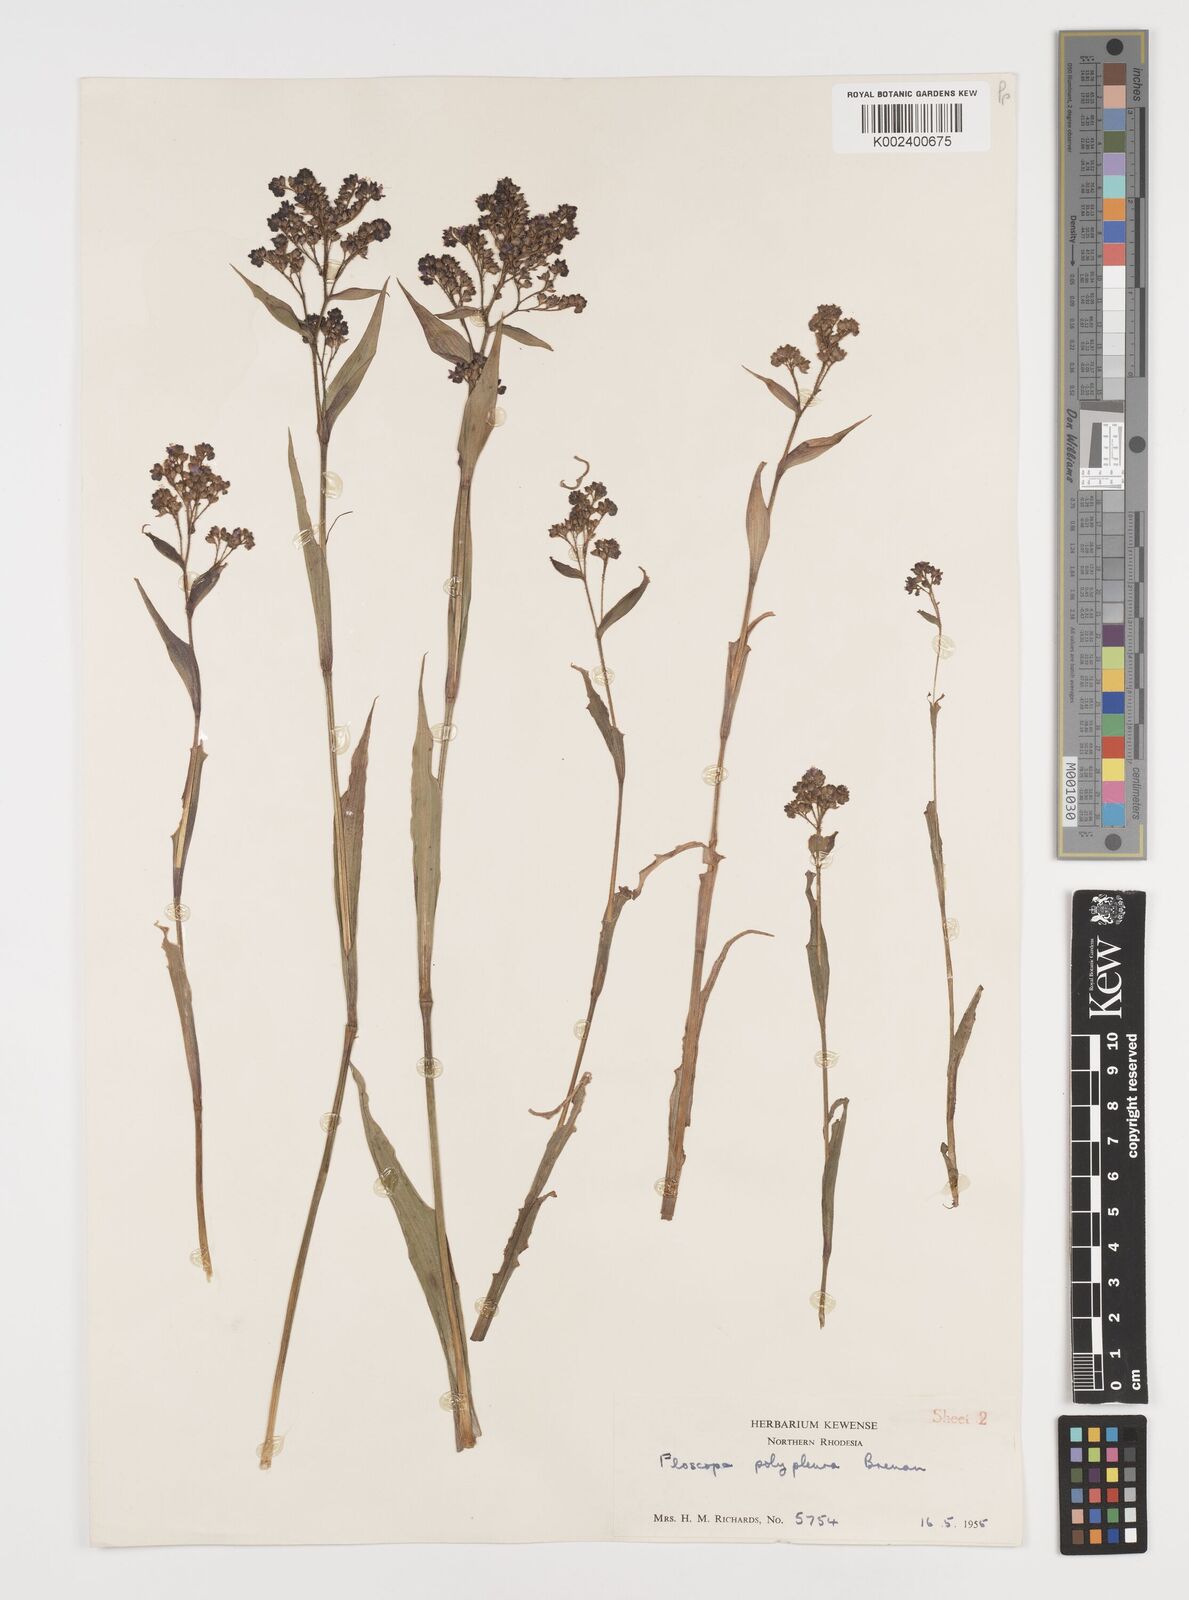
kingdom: Plantae
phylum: Tracheophyta
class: Liliopsida
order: Commelinales
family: Commelinaceae
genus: Floscopa
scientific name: Floscopa polypleura
